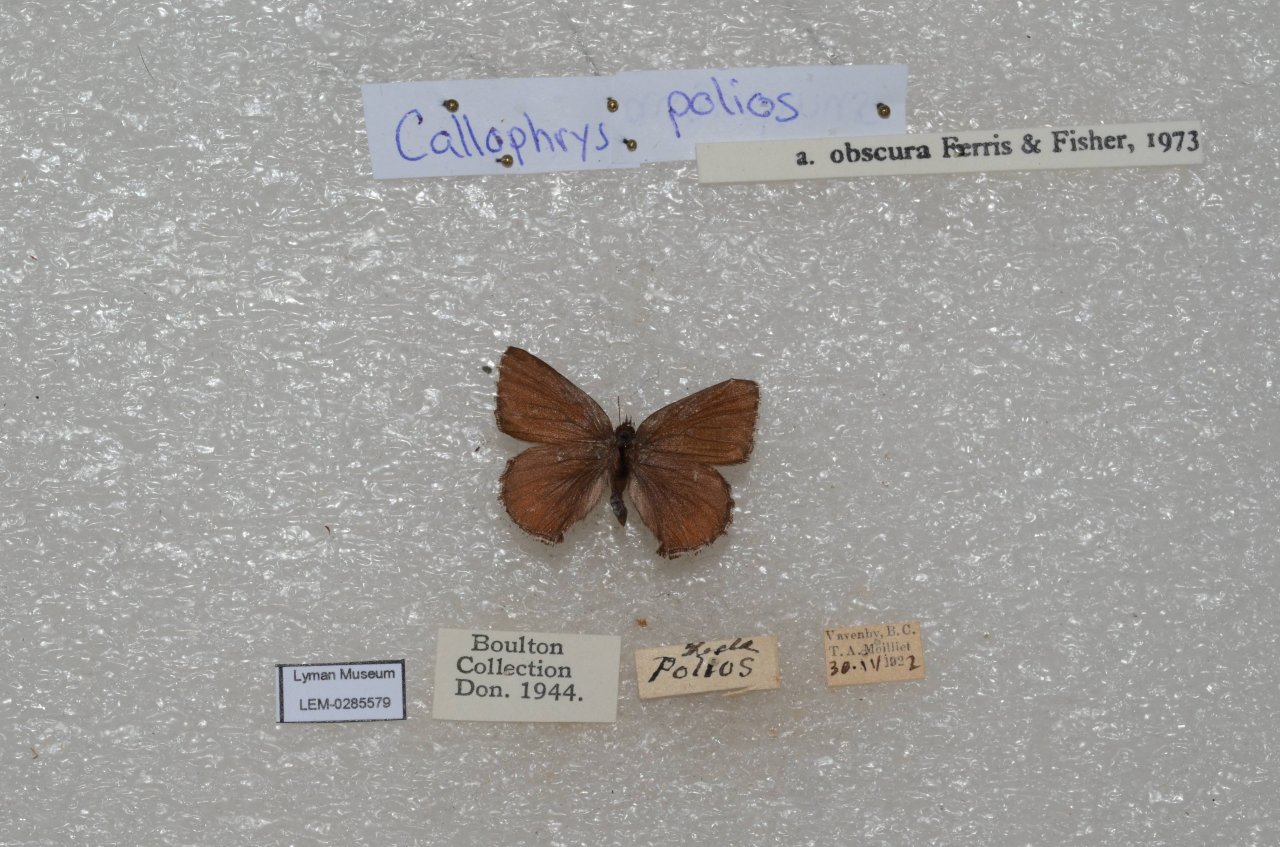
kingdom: Animalia
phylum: Arthropoda
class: Insecta
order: Lepidoptera
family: Lycaenidae
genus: Callophrys
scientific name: Callophrys polios
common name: Hoary Elfin
